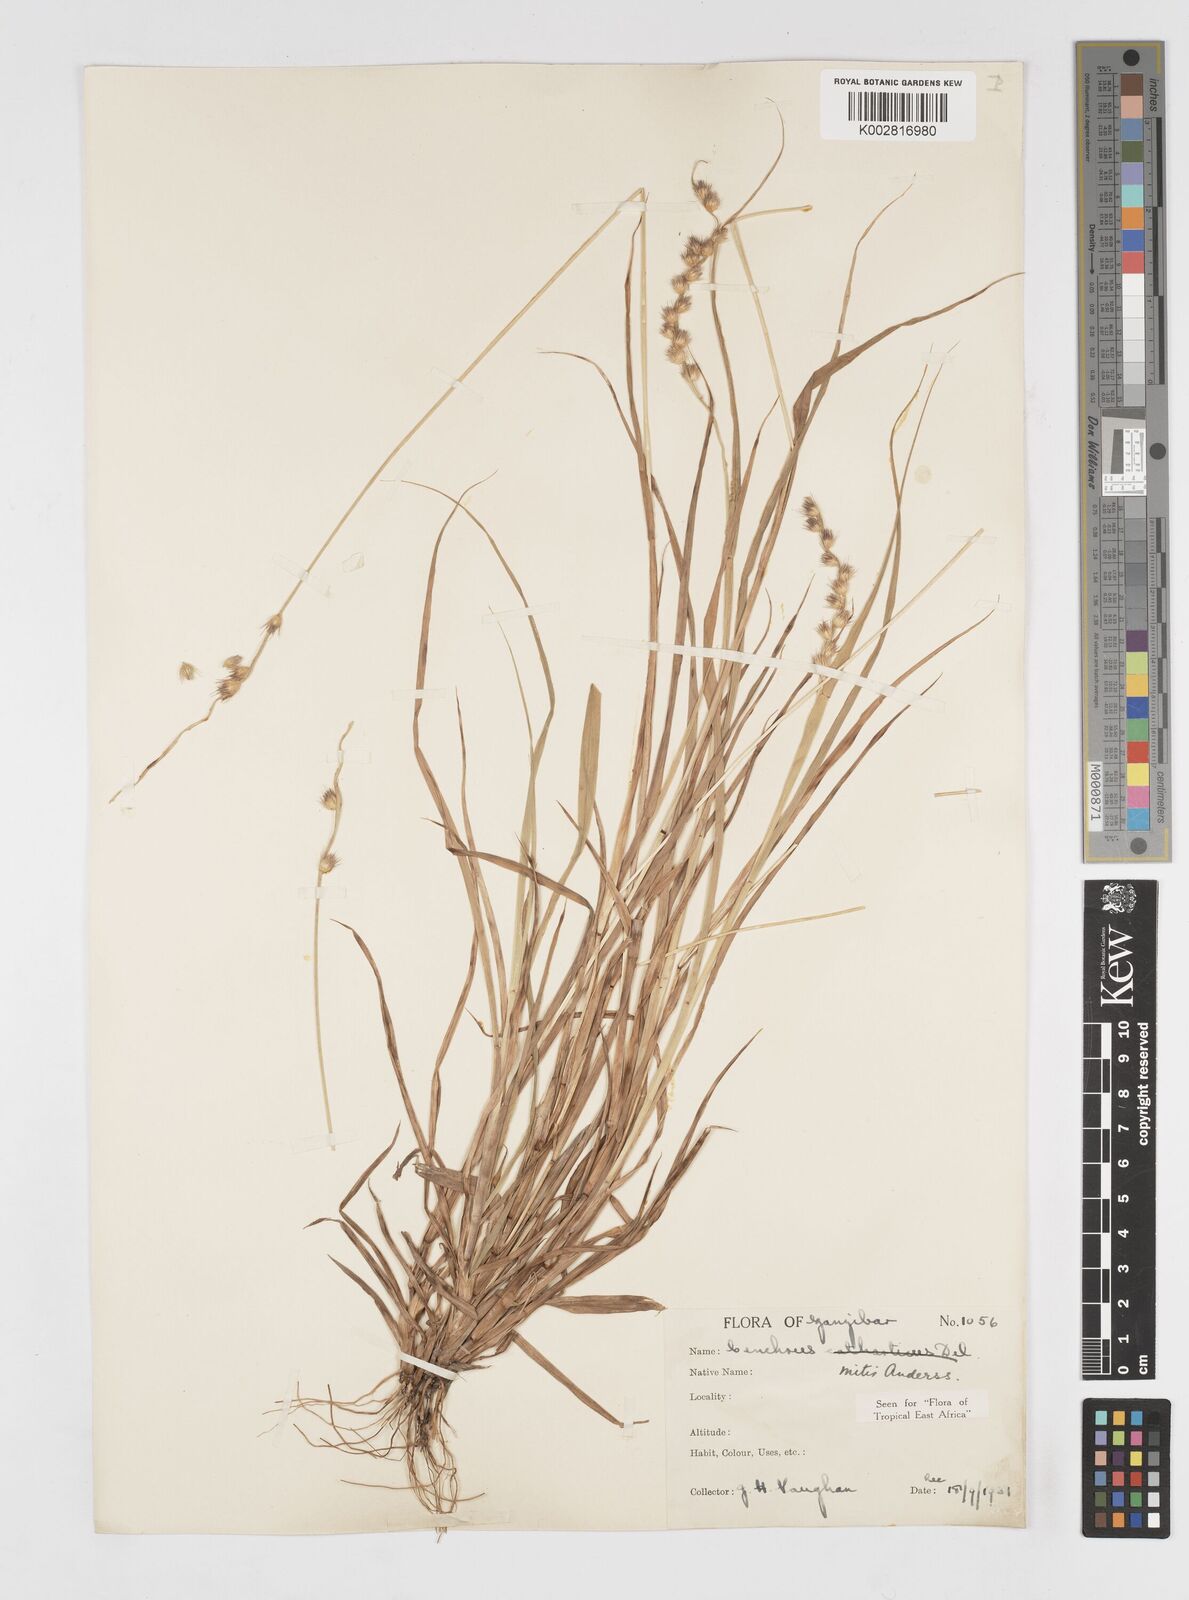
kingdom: Plantae
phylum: Tracheophyta
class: Liliopsida
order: Poales
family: Poaceae
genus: Cenchrus
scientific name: Cenchrus mitis
